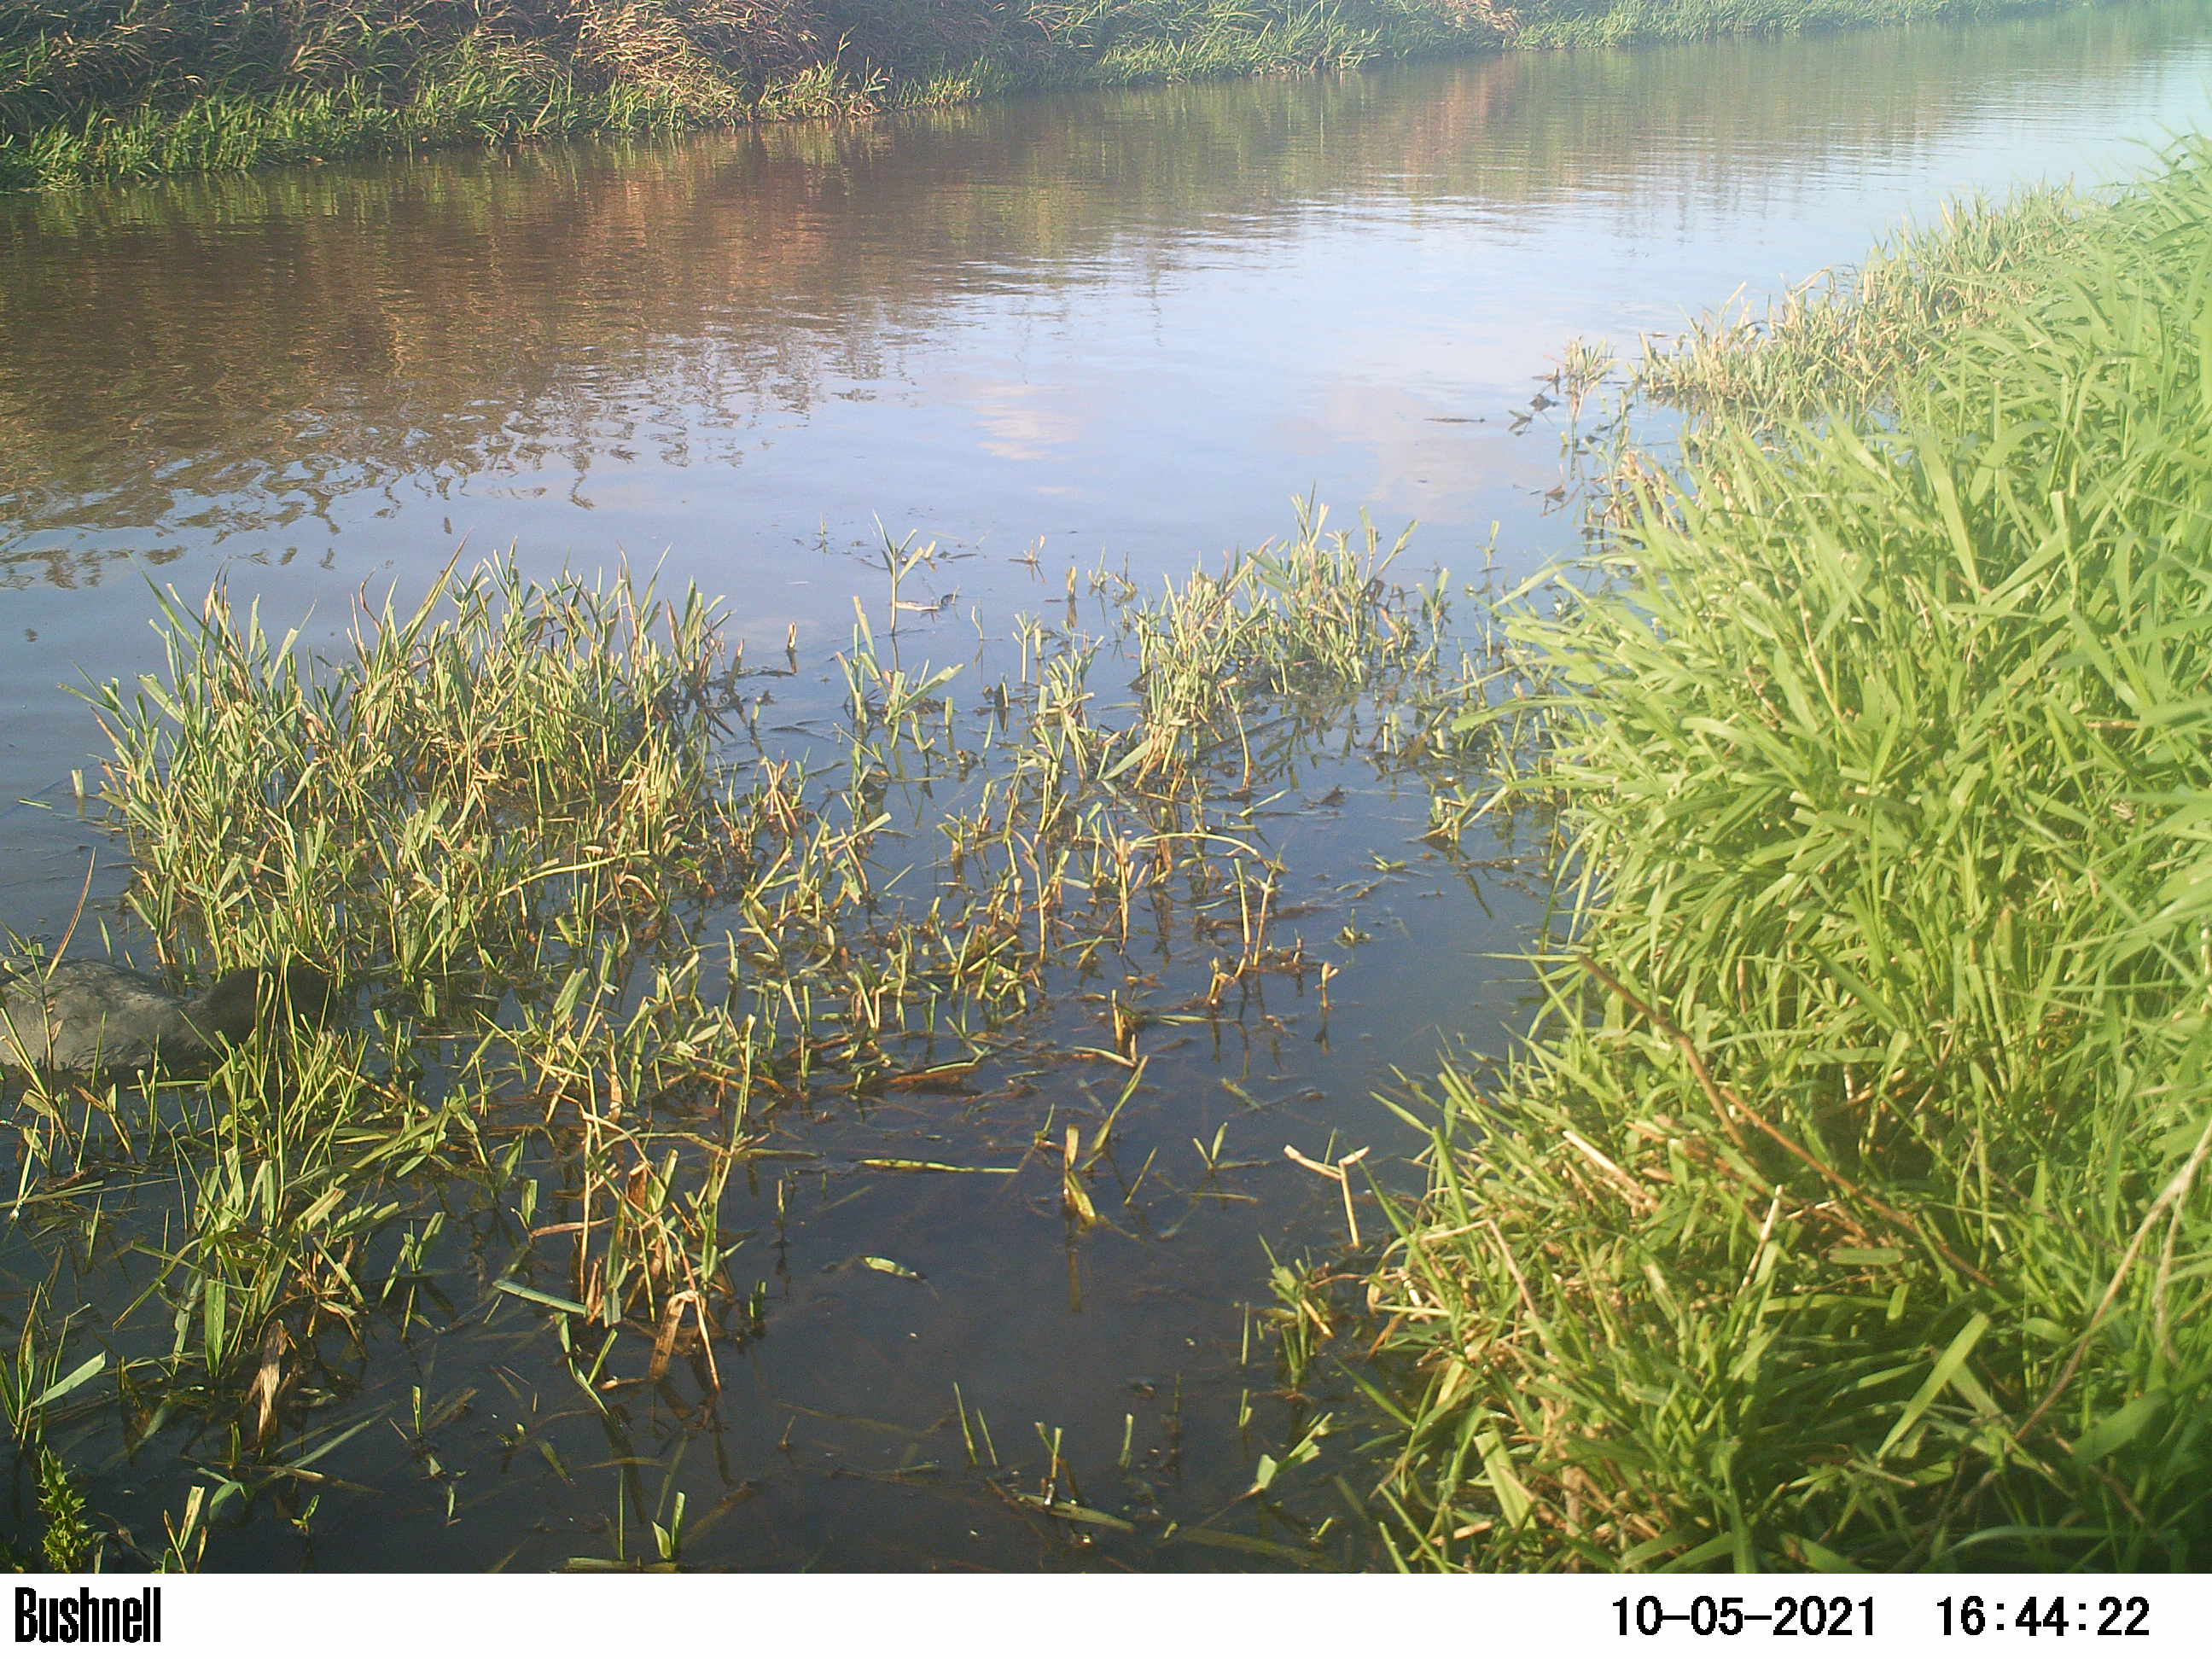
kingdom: Animalia
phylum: Chordata
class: Aves
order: Anseriformes
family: Anatidae
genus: Anas
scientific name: Anas
